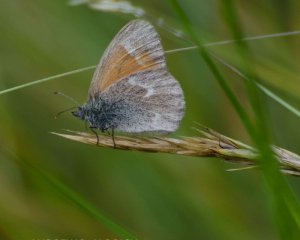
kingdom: Animalia
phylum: Arthropoda
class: Insecta
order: Lepidoptera
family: Nymphalidae
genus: Coenonympha
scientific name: Coenonympha tullia
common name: Large Heath
